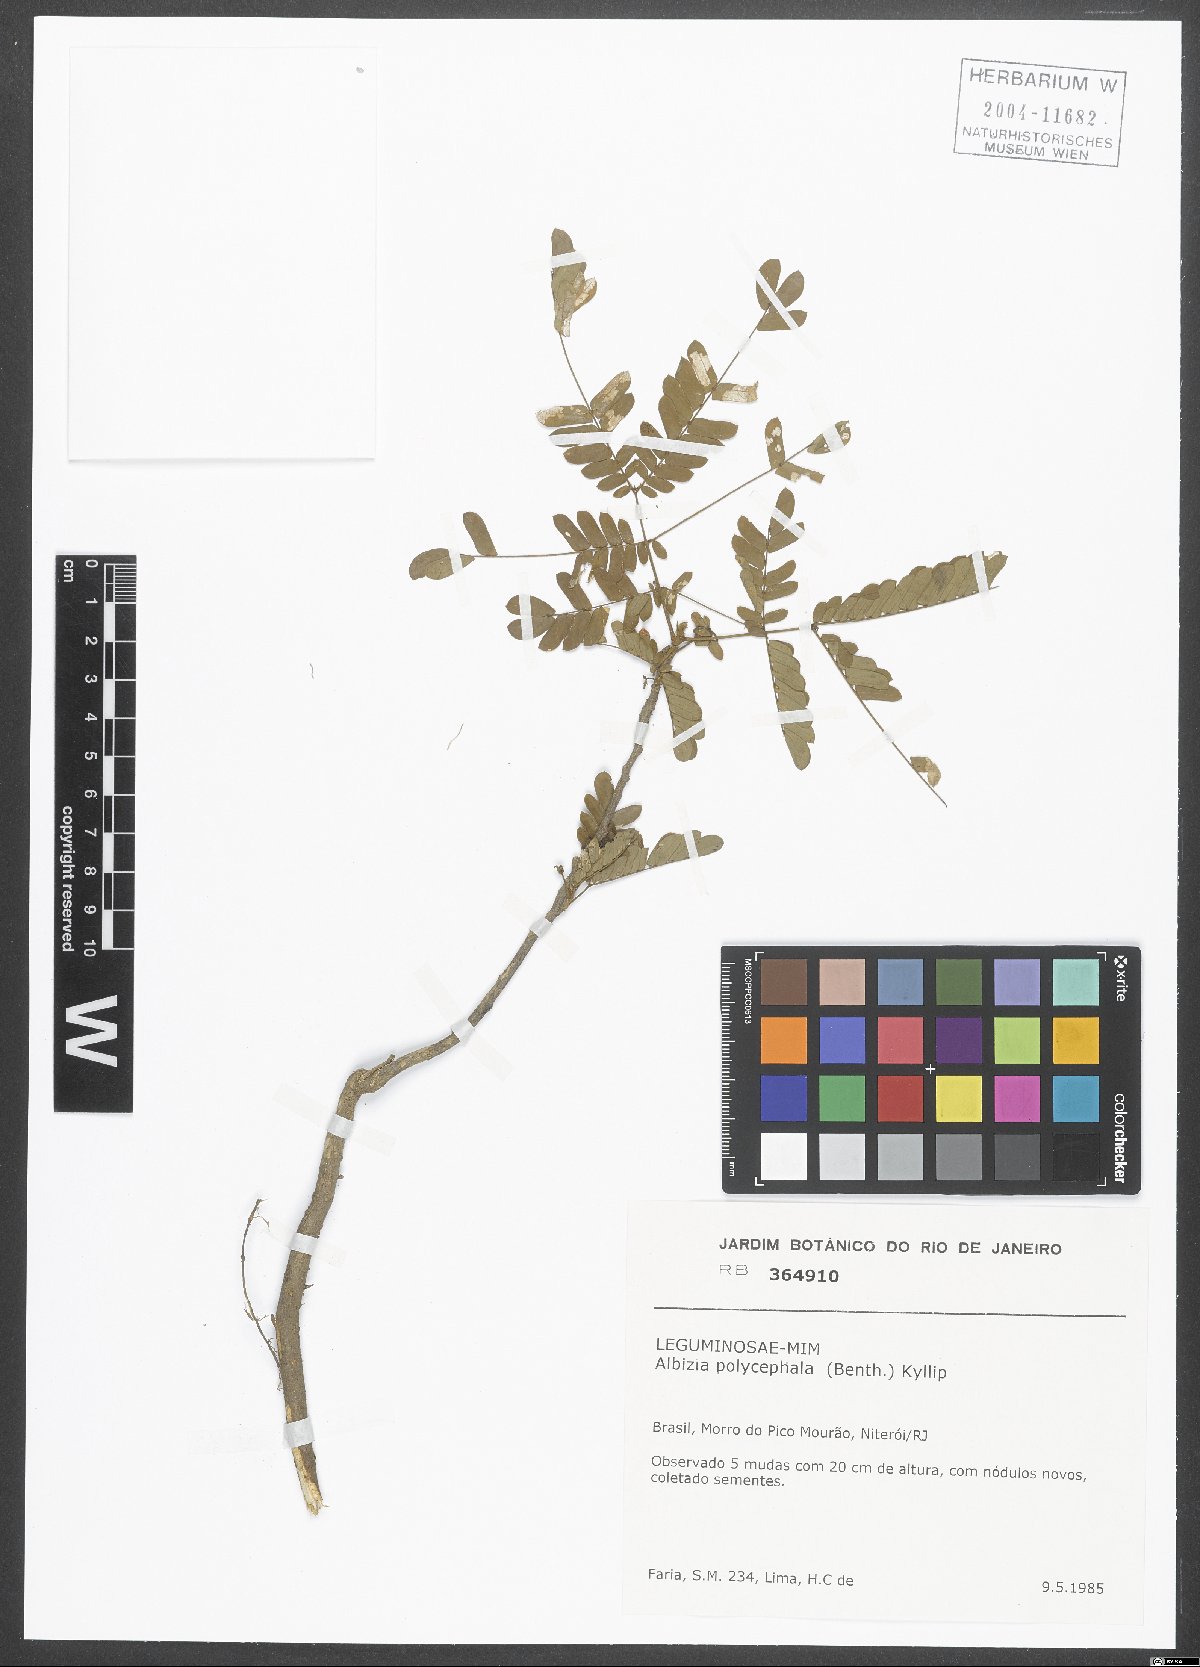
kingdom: Plantae
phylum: Tracheophyta
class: Magnoliopsida
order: Fabales
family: Fabaceae
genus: Albizia
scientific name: Albizia polycephala
